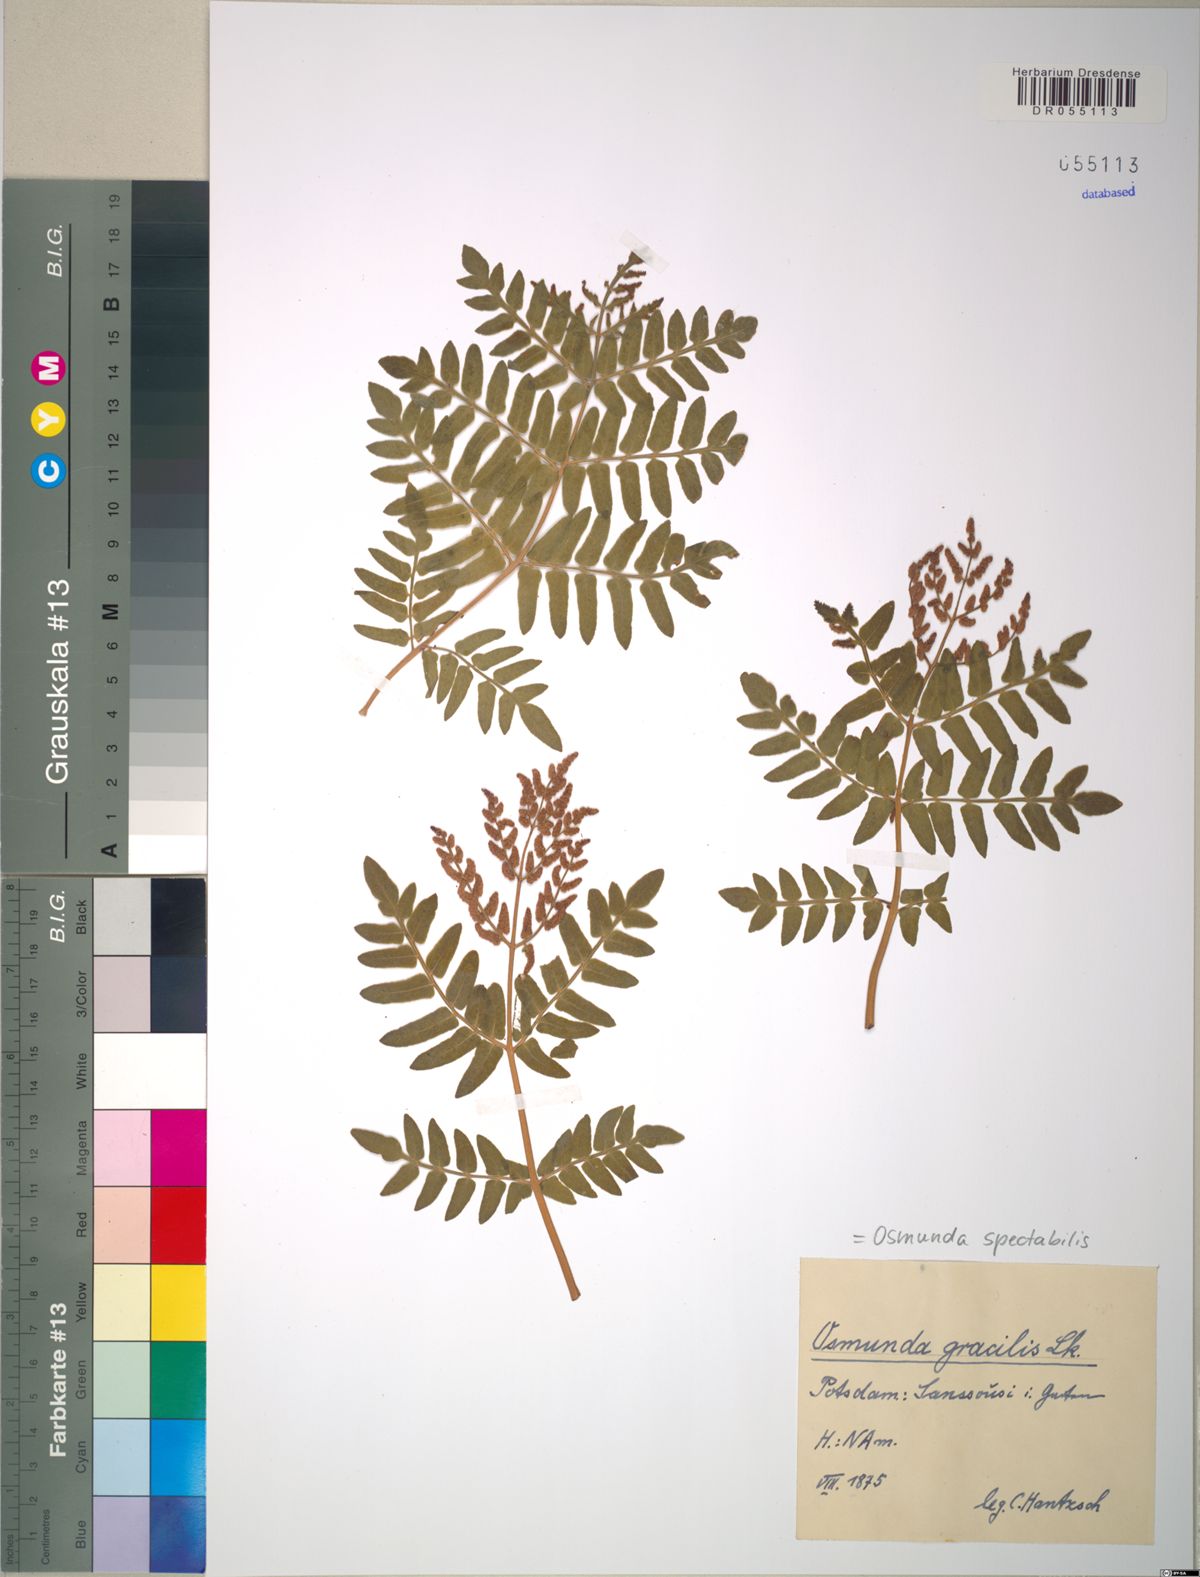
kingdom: Plantae
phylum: Tracheophyta
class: Polypodiopsida
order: Osmundales
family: Osmundaceae
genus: Osmunda
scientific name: Osmunda spectabilis
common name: American royal fern
